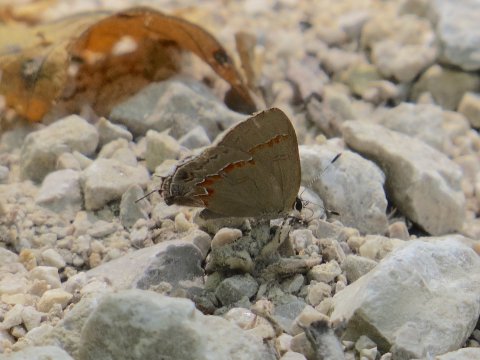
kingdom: Animalia
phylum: Arthropoda
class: Insecta
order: Lepidoptera
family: Lycaenidae
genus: Calycopis
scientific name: Calycopis cecrops
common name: Red-banded Hairstreak
